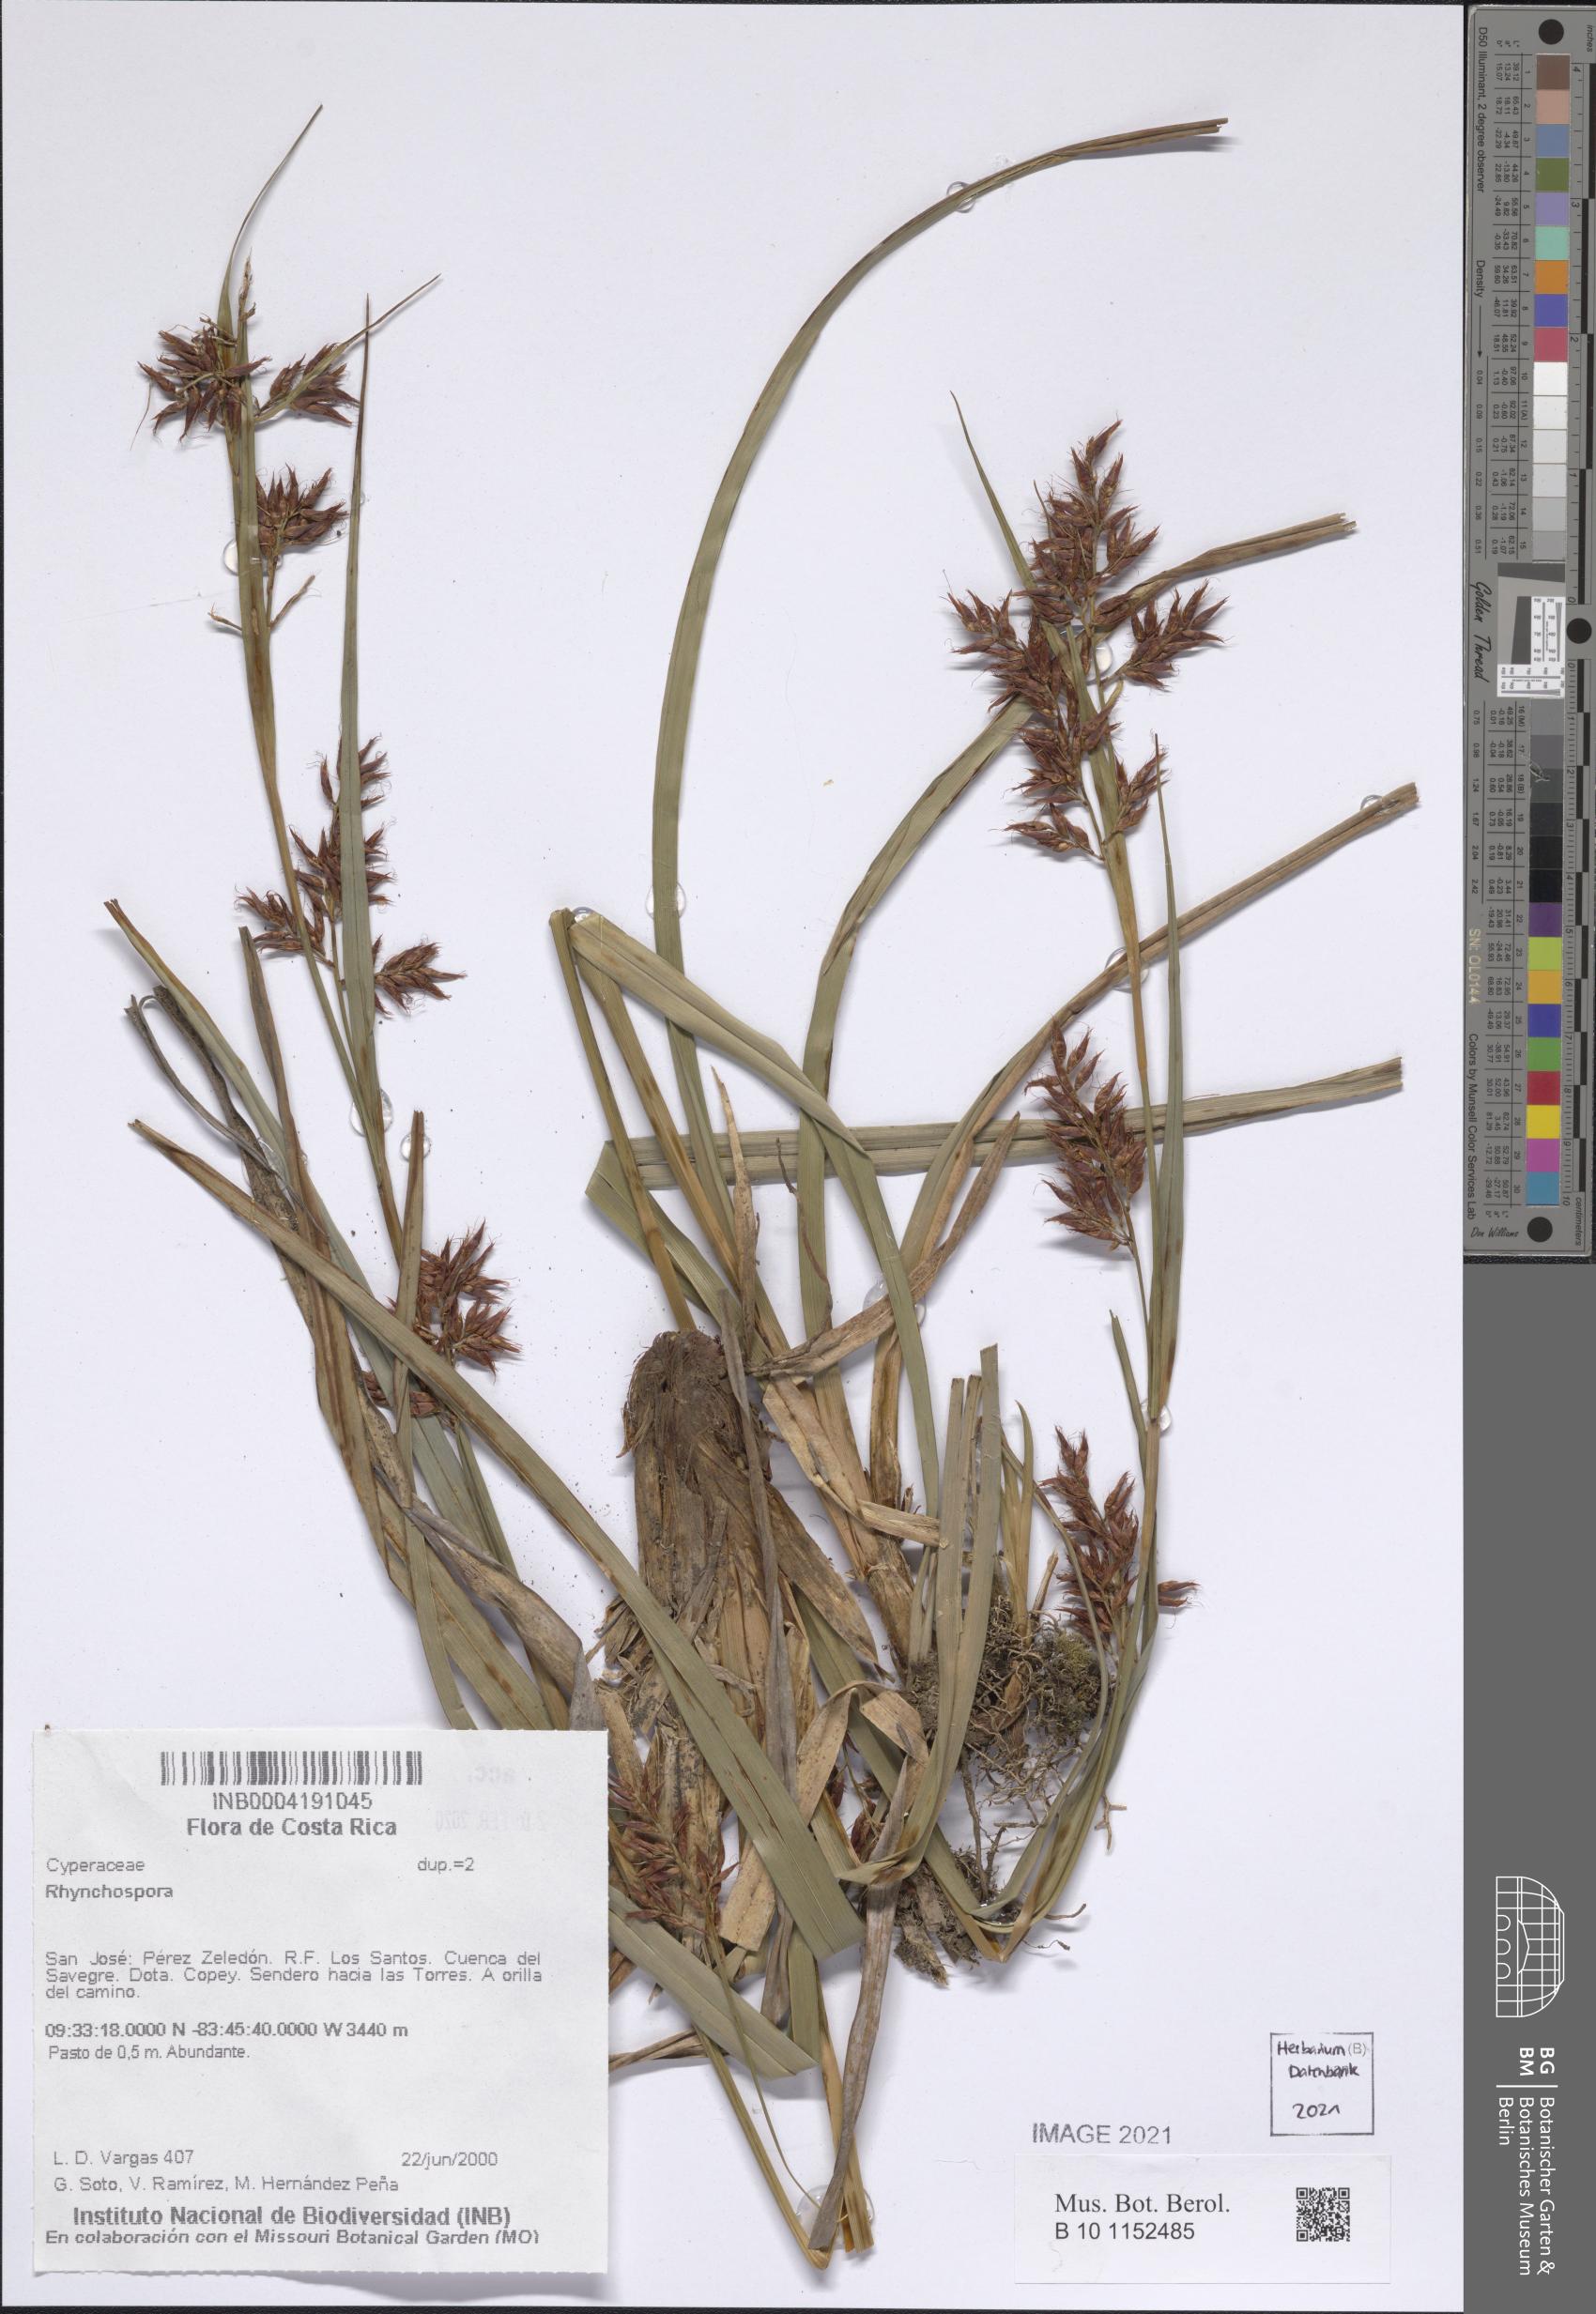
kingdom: Plantae
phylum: Tracheophyta
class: Liliopsida
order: Poales
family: Cyperaceae
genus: Rhynchospora
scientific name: Rhynchospora
